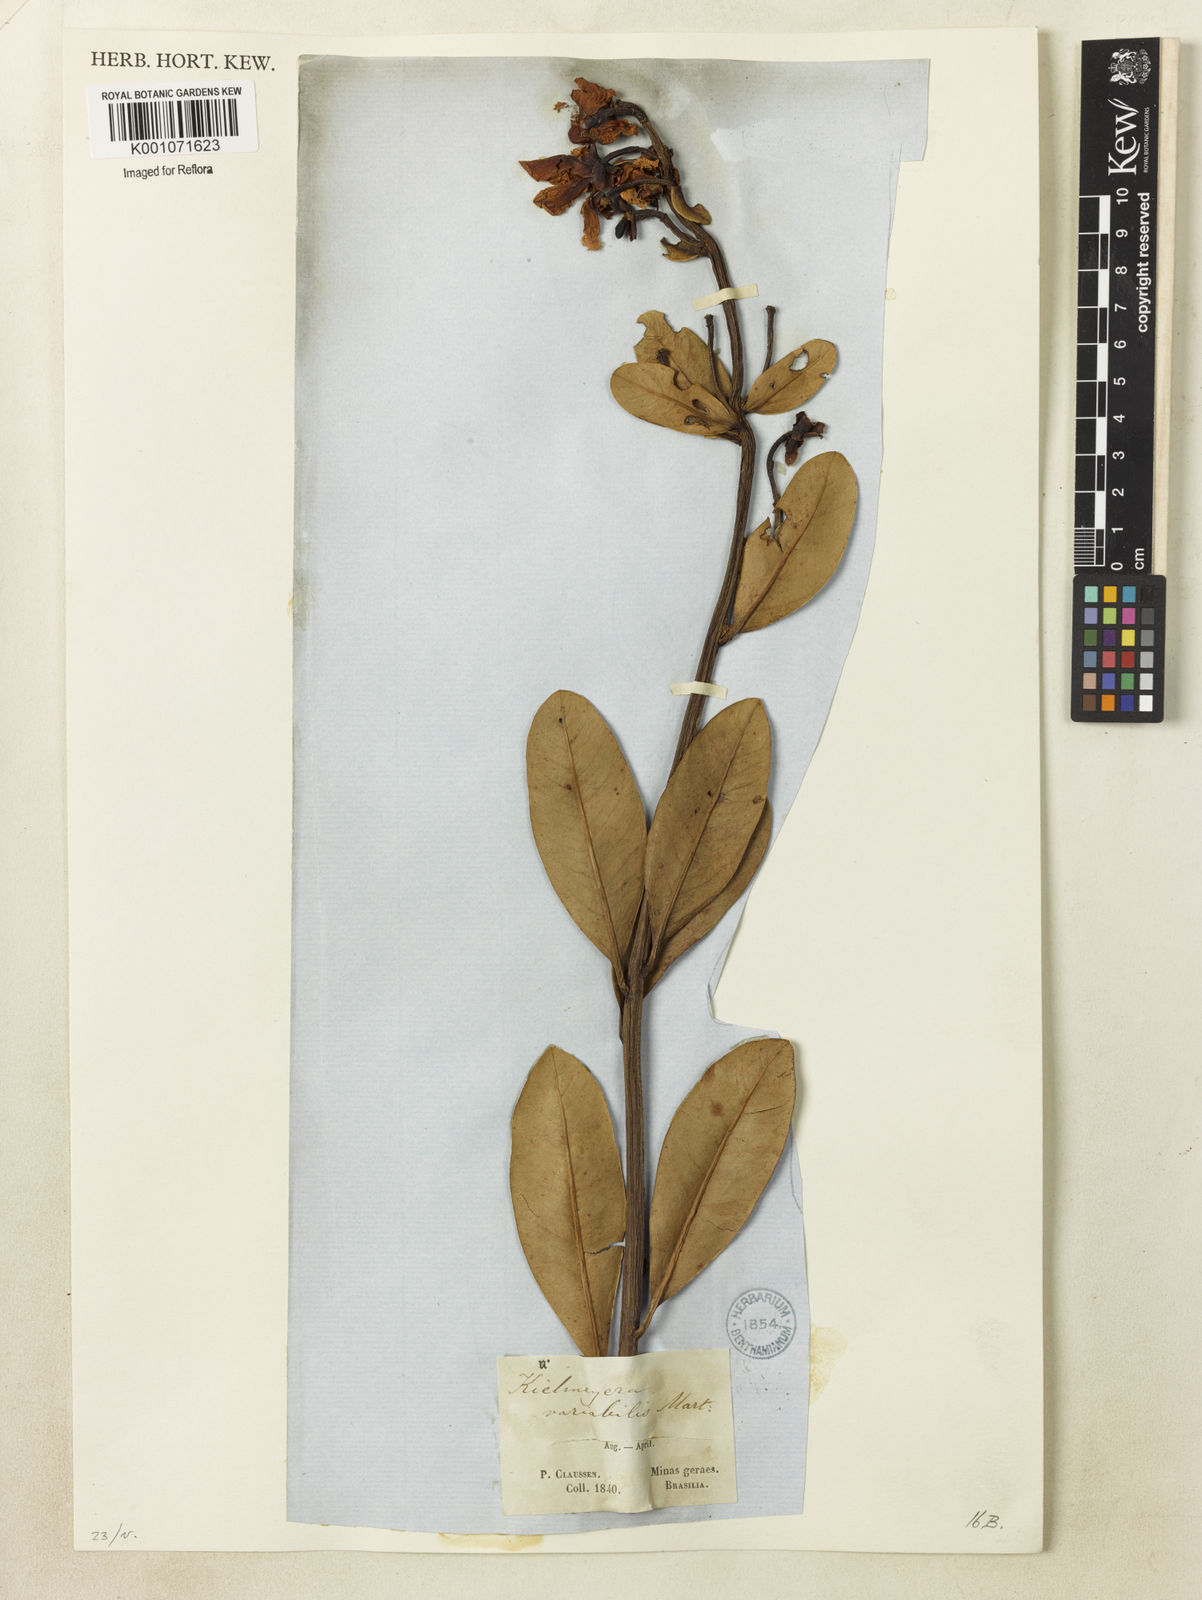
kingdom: Plantae
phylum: Tracheophyta
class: Magnoliopsida
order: Malpighiales
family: Calophyllaceae
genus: Kielmeyera
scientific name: Kielmeyera variabilis
